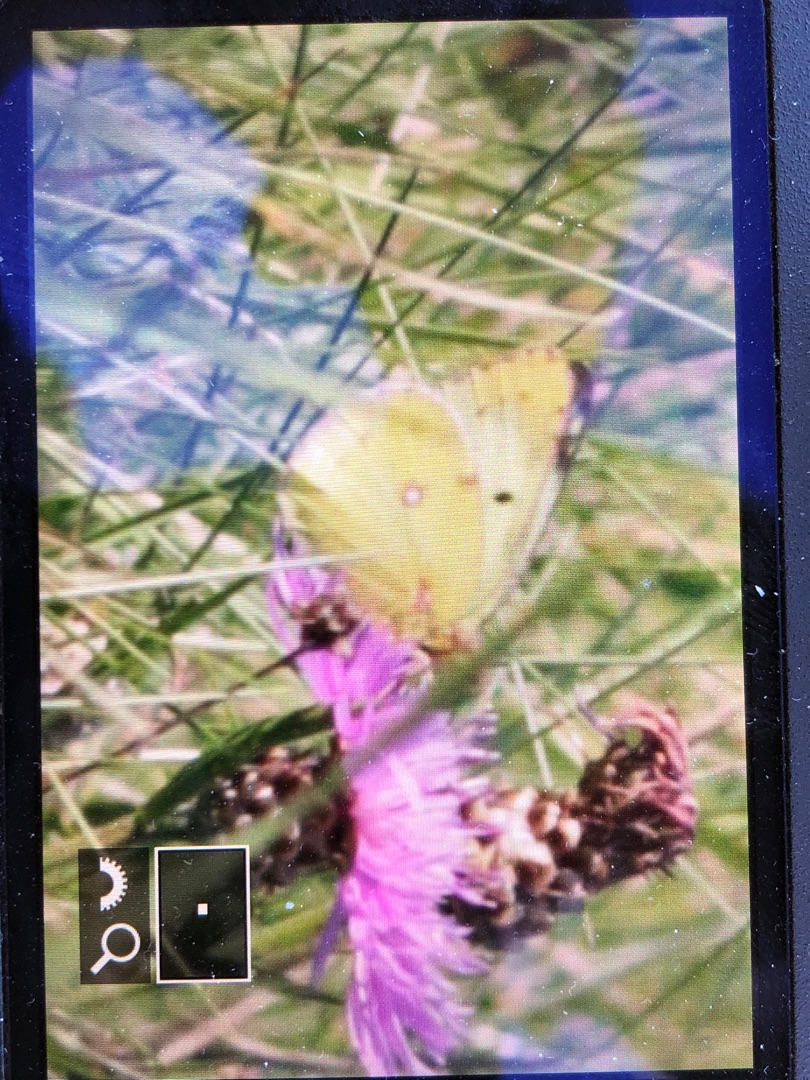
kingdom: Animalia
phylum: Arthropoda
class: Insecta
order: Lepidoptera
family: Pieridae
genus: Colias
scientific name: Colias hyale
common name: Gul høsommerfugl
